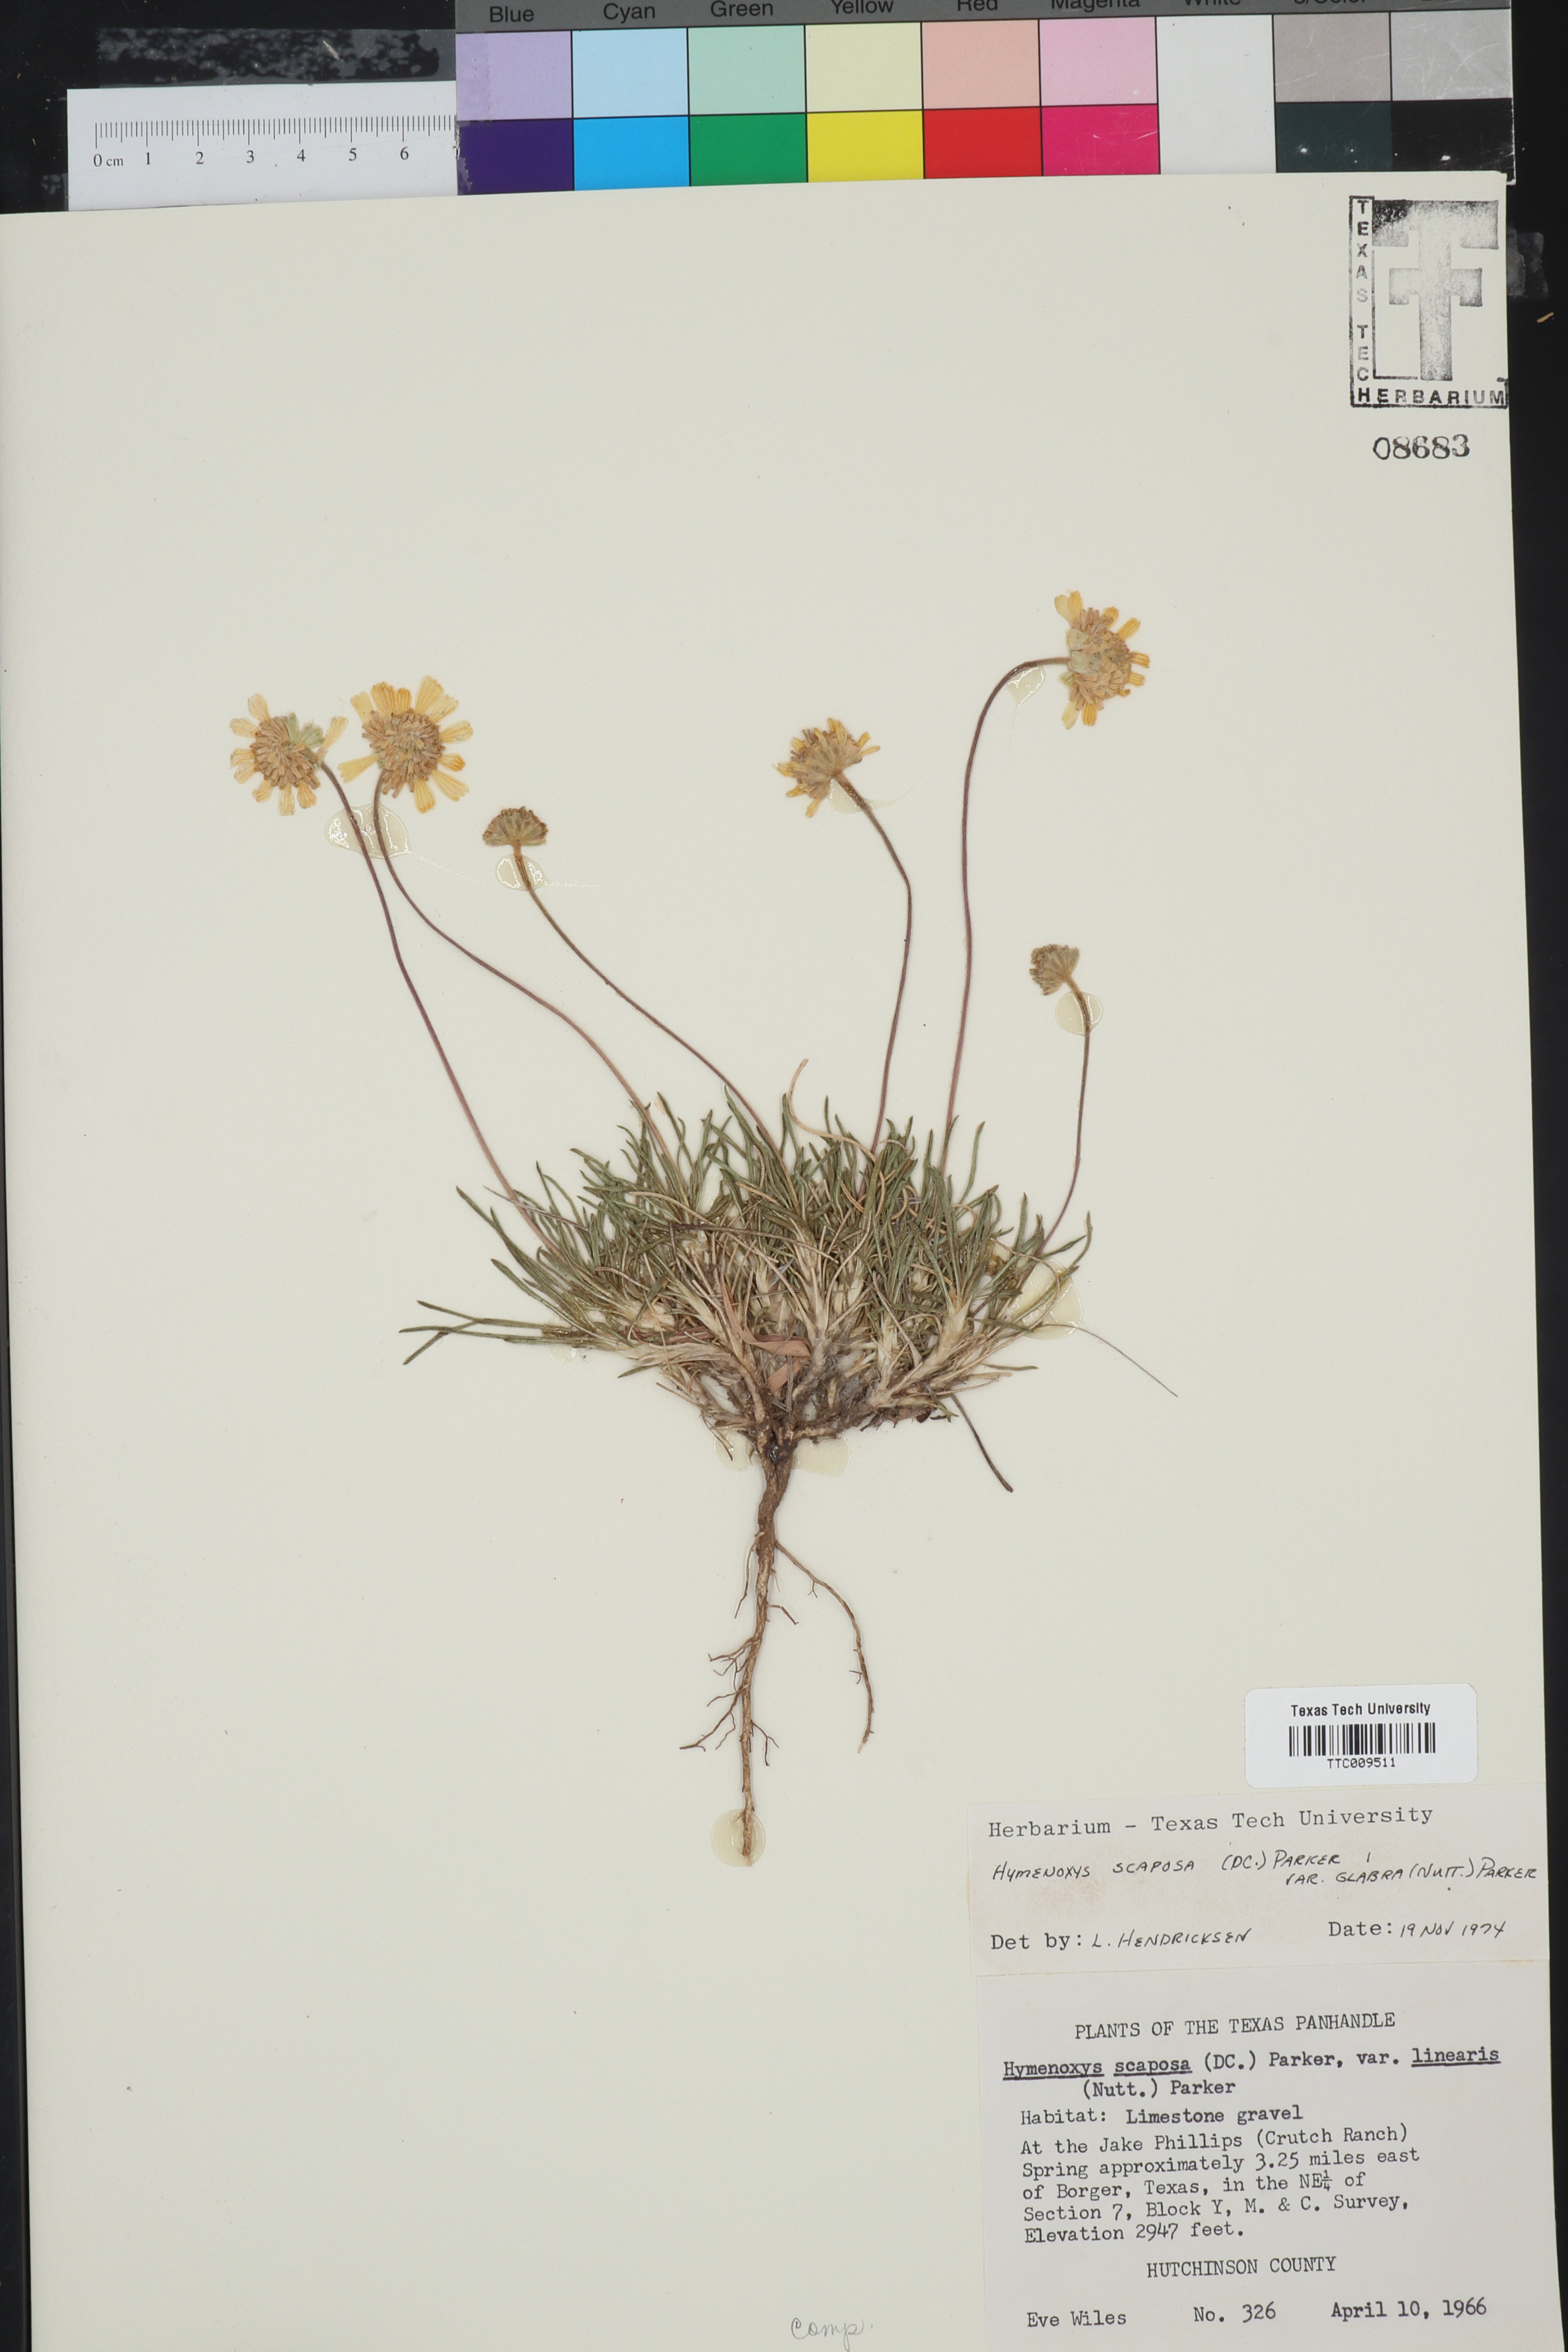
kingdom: Plantae
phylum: Tracheophyta
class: Magnoliopsida
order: Asterales
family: Asteraceae
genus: Tetraneuris
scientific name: Tetraneuris scaposa
